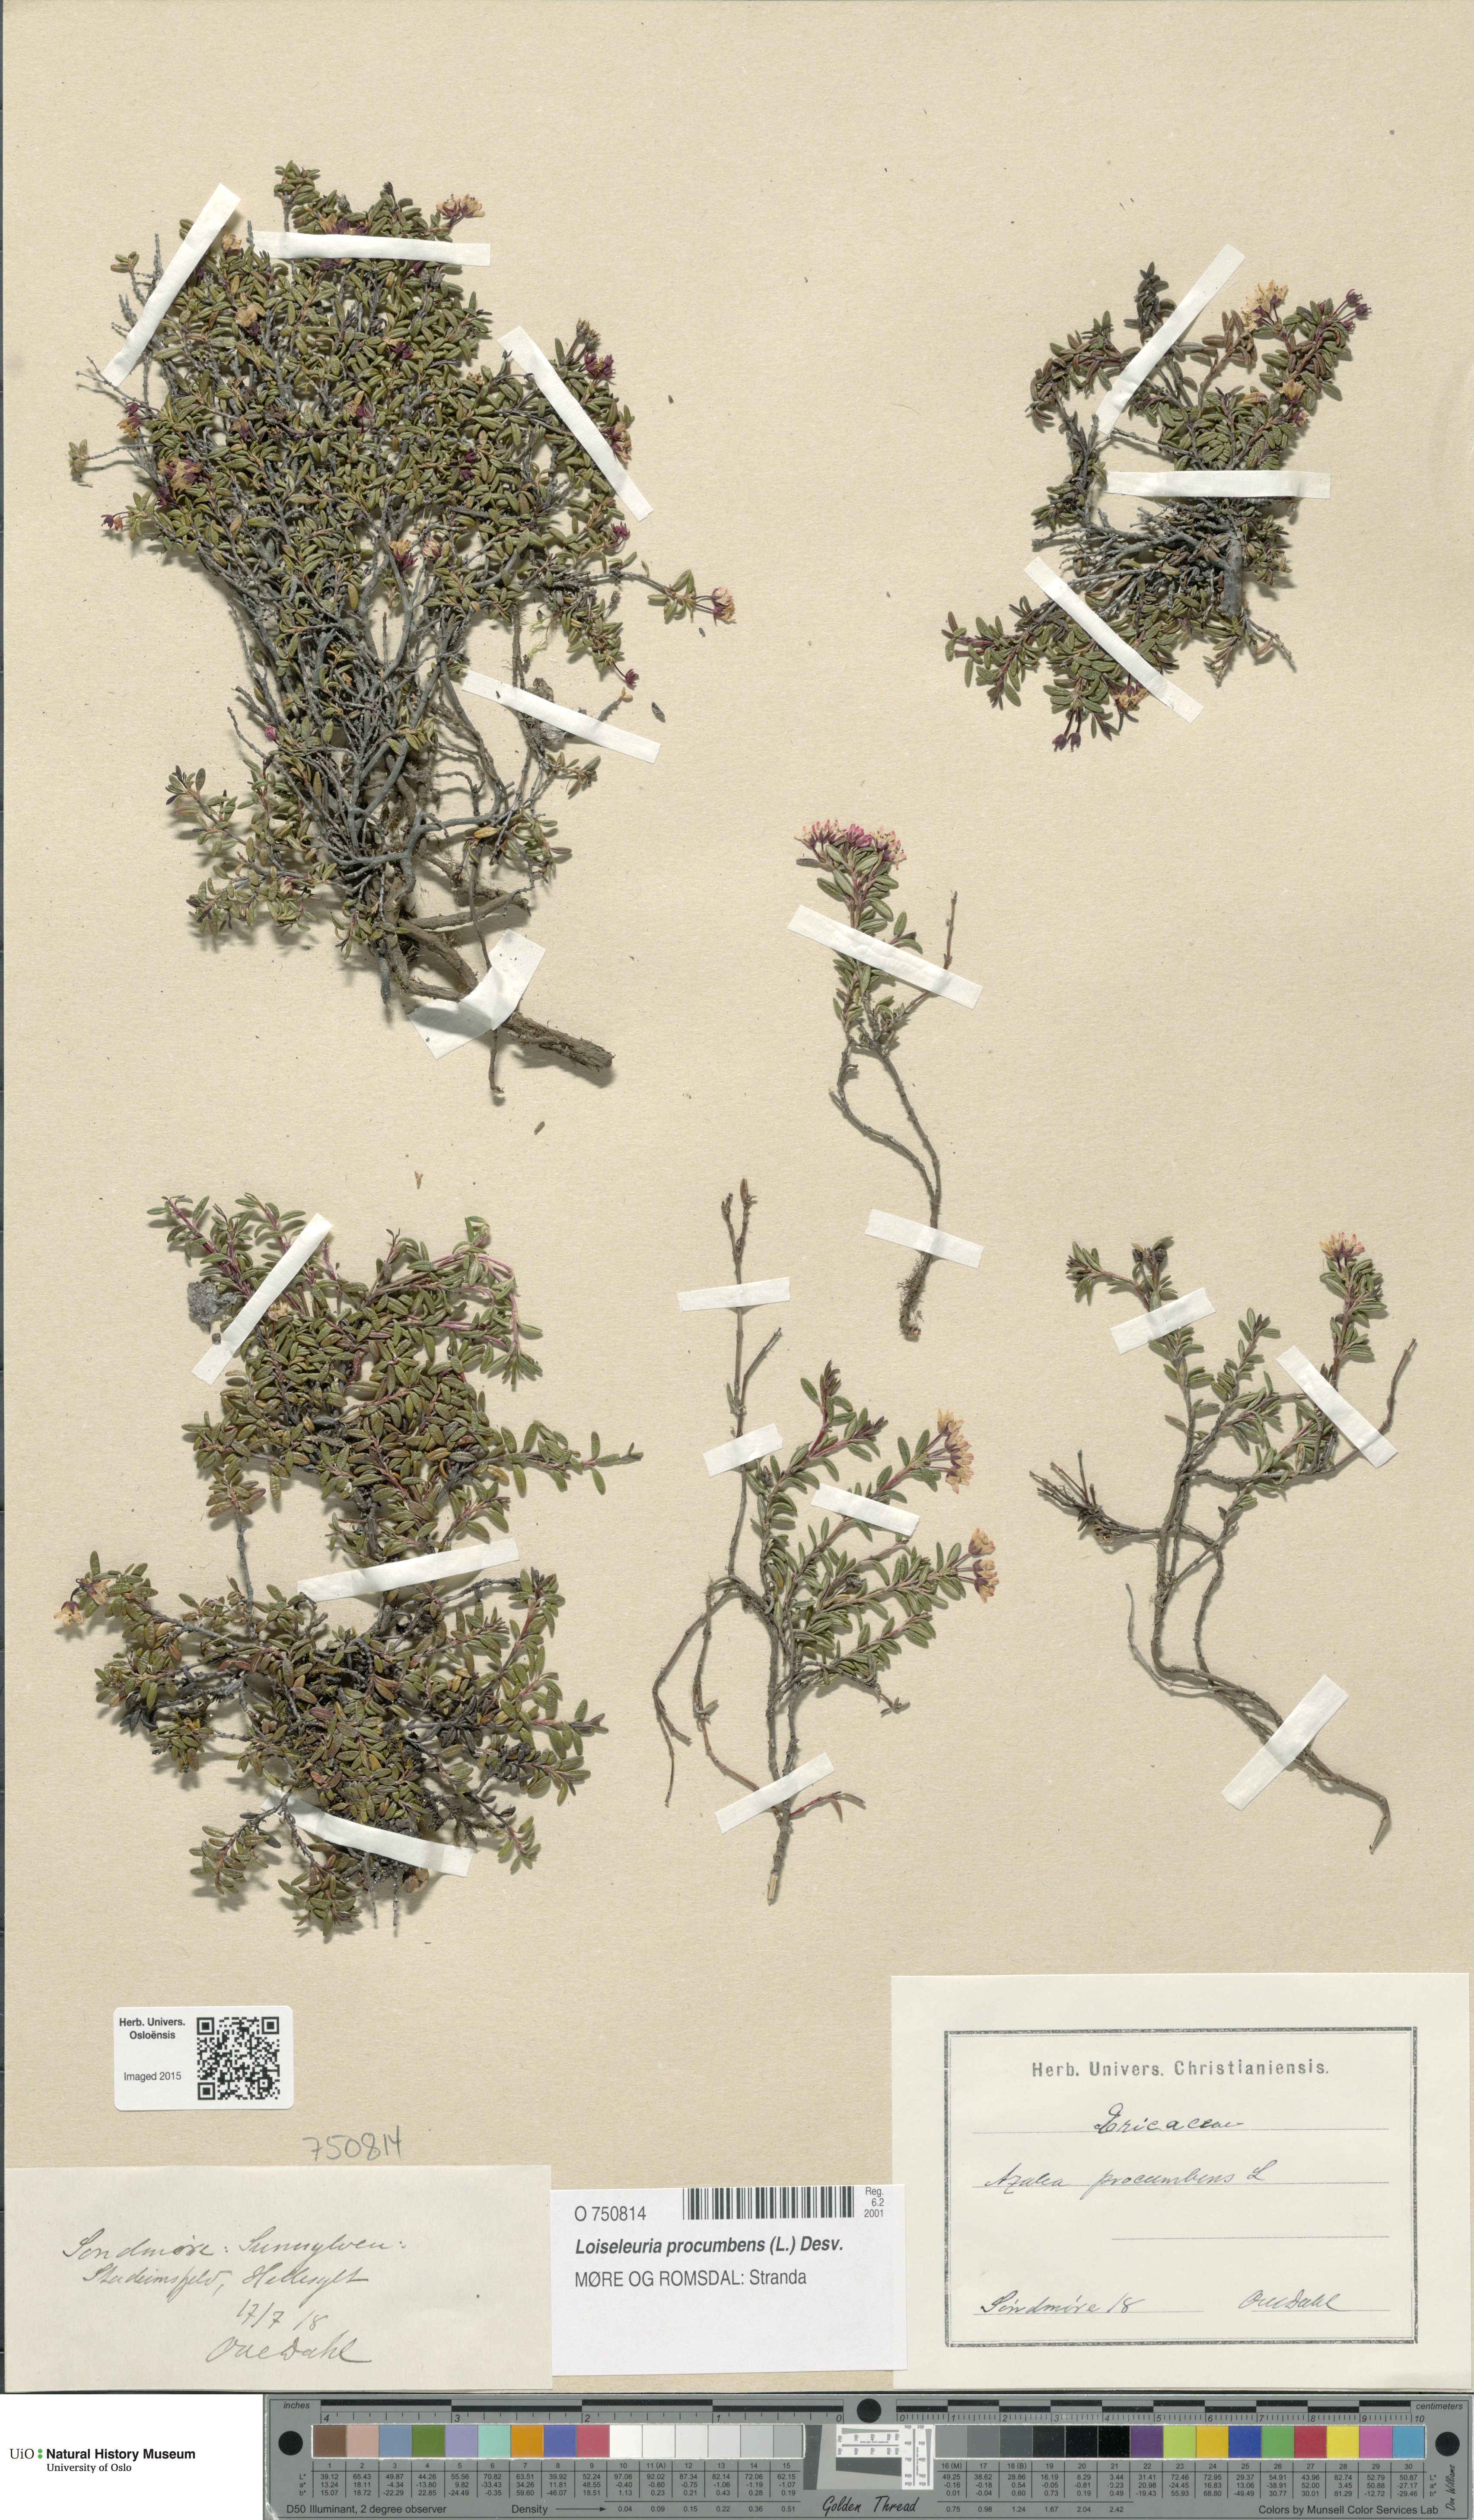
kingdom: Plantae
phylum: Tracheophyta
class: Magnoliopsida
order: Ericales
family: Ericaceae
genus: Kalmia
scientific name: Kalmia procumbens
